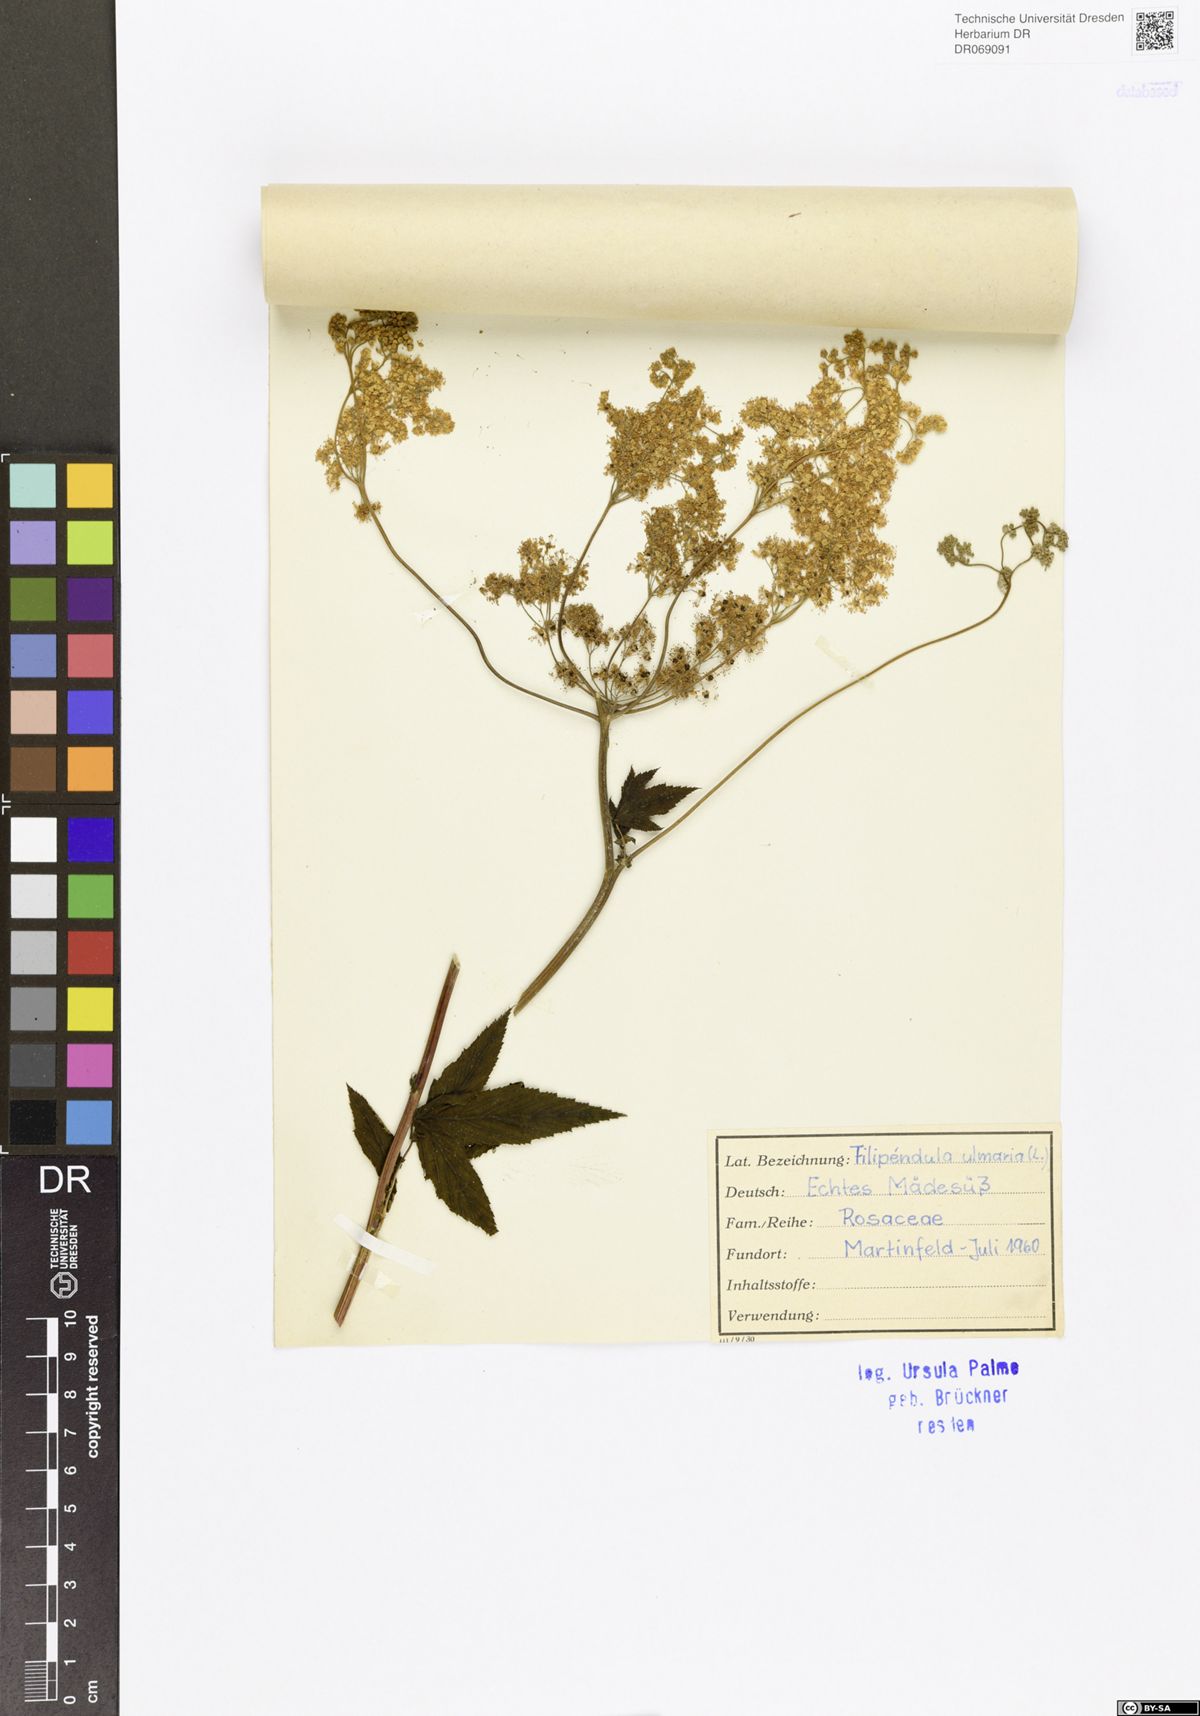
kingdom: Plantae
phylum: Tracheophyta
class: Magnoliopsida
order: Rosales
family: Rosaceae
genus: Filipendula
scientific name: Filipendula ulmaria
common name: Meadowsweet
